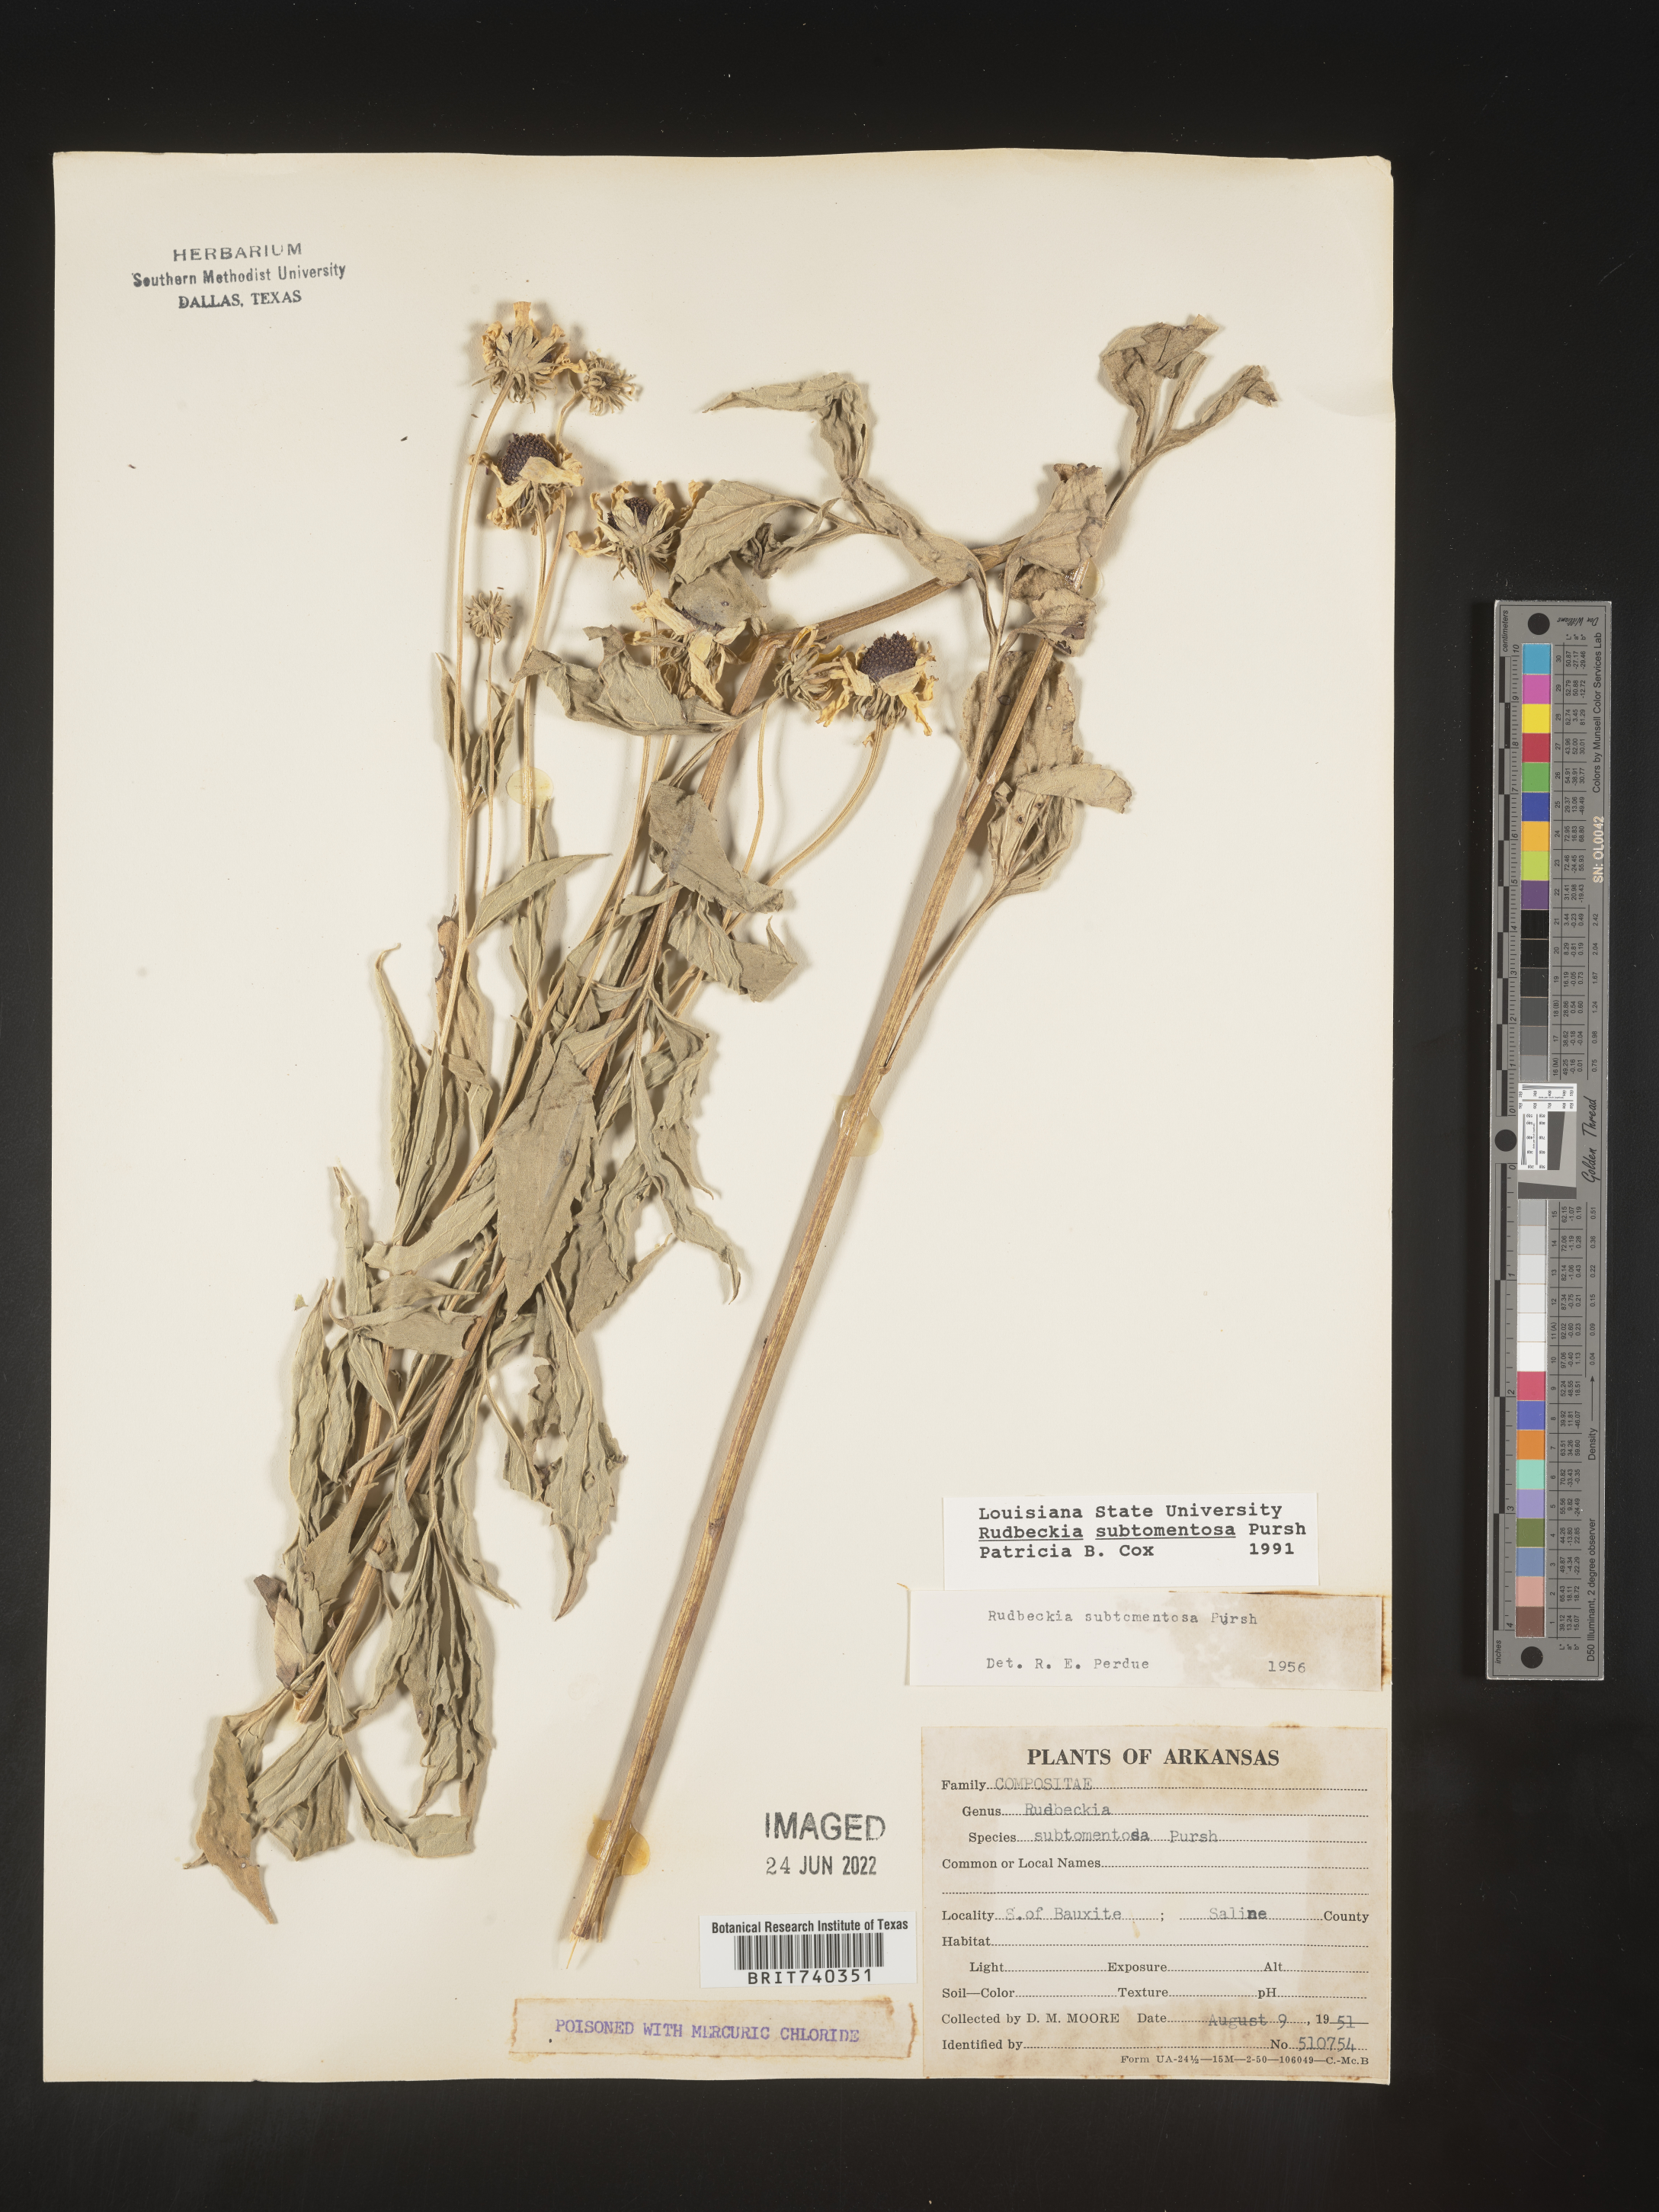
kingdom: Plantae
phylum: Tracheophyta
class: Magnoliopsida
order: Asterales
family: Asteraceae
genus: Rudbeckia
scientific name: Rudbeckia subtomentosa
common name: Sweet coneflower
